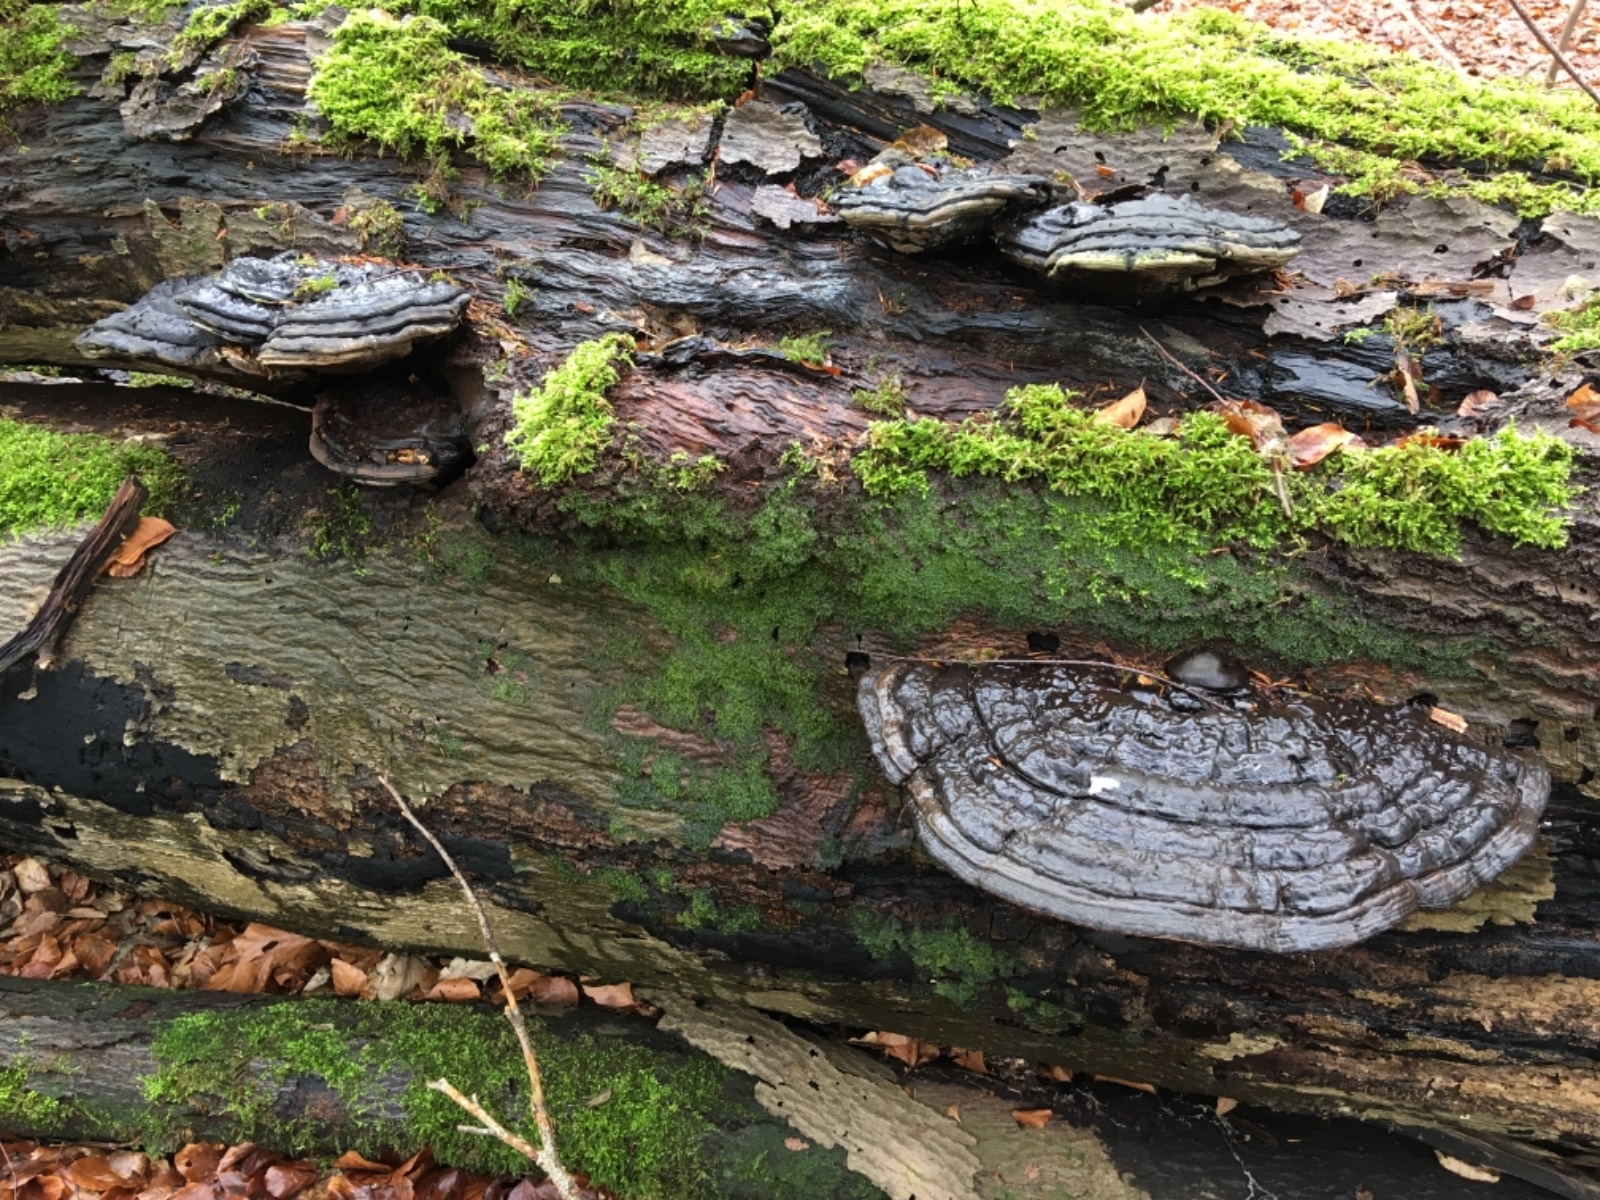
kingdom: Fungi
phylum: Basidiomycota
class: Agaricomycetes
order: Polyporales
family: Polyporaceae
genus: Ganoderma
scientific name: Ganoderma applanatum
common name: flad lakporesvamp
